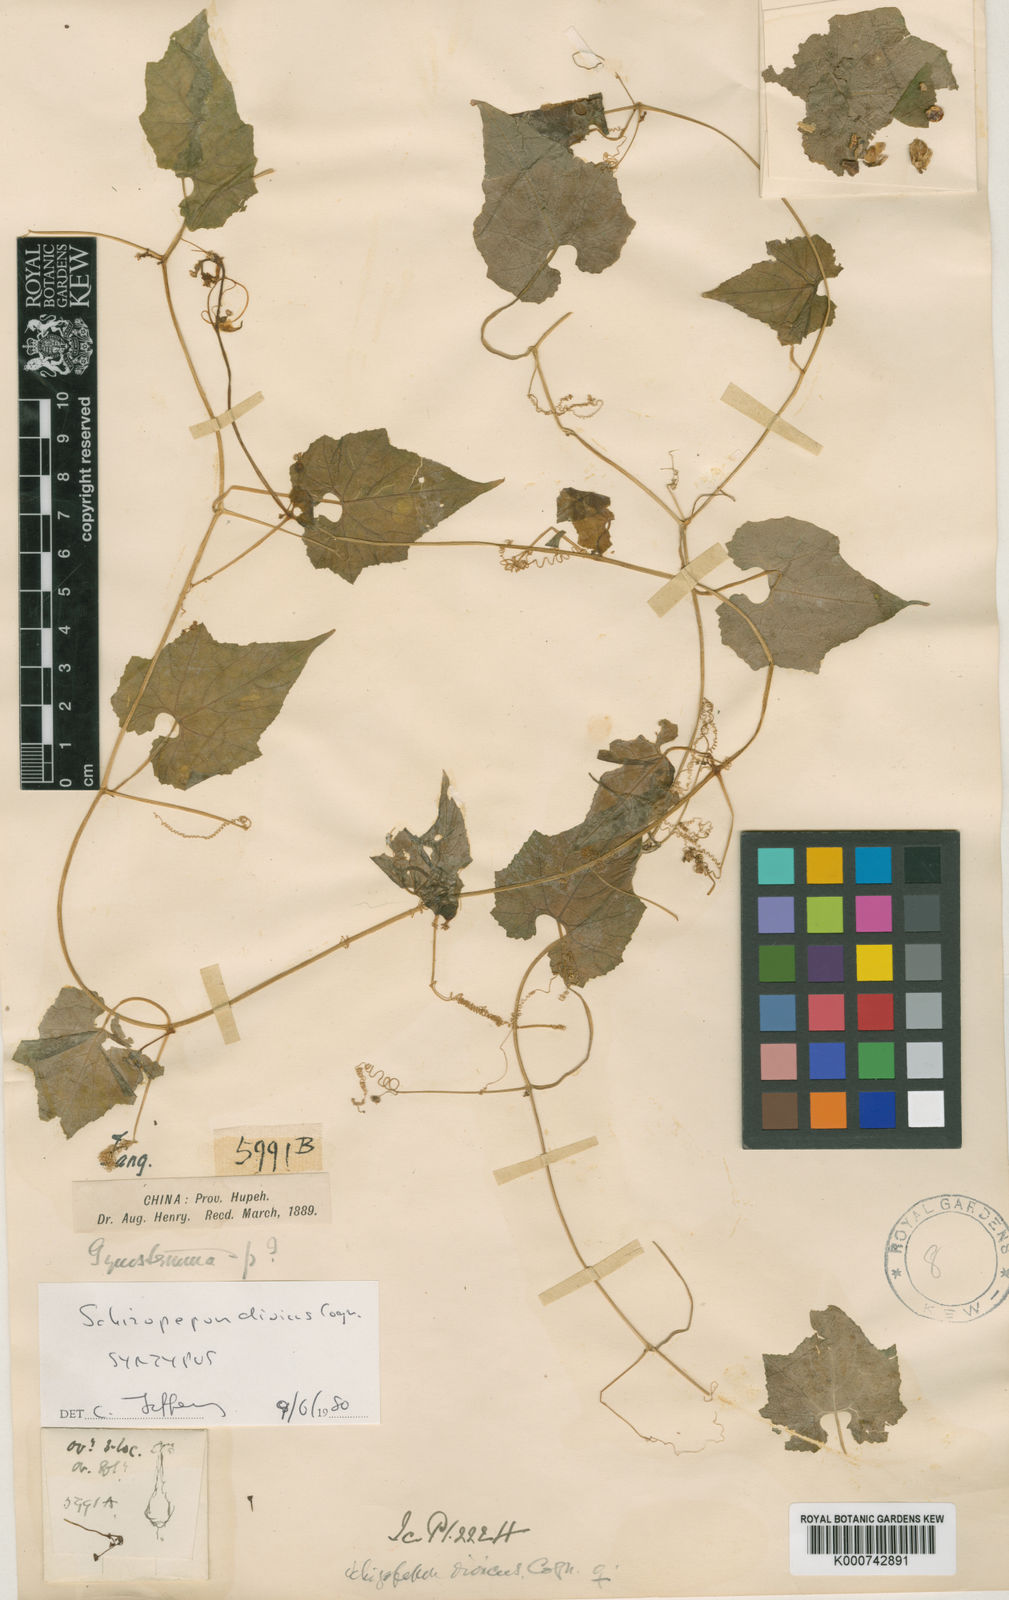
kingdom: Plantae
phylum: Tracheophyta
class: Magnoliopsida
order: Cucurbitales
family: Cucurbitaceae
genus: Schizopepon
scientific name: Schizopepon dioicus
